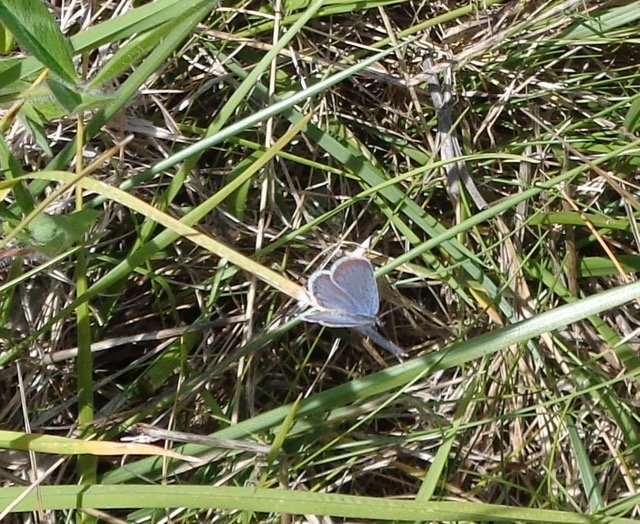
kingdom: Animalia
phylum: Arthropoda
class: Insecta
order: Lepidoptera
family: Lycaenidae
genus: Elkalyce
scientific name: Elkalyce comyntas
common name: Eastern Tailed-Blue
